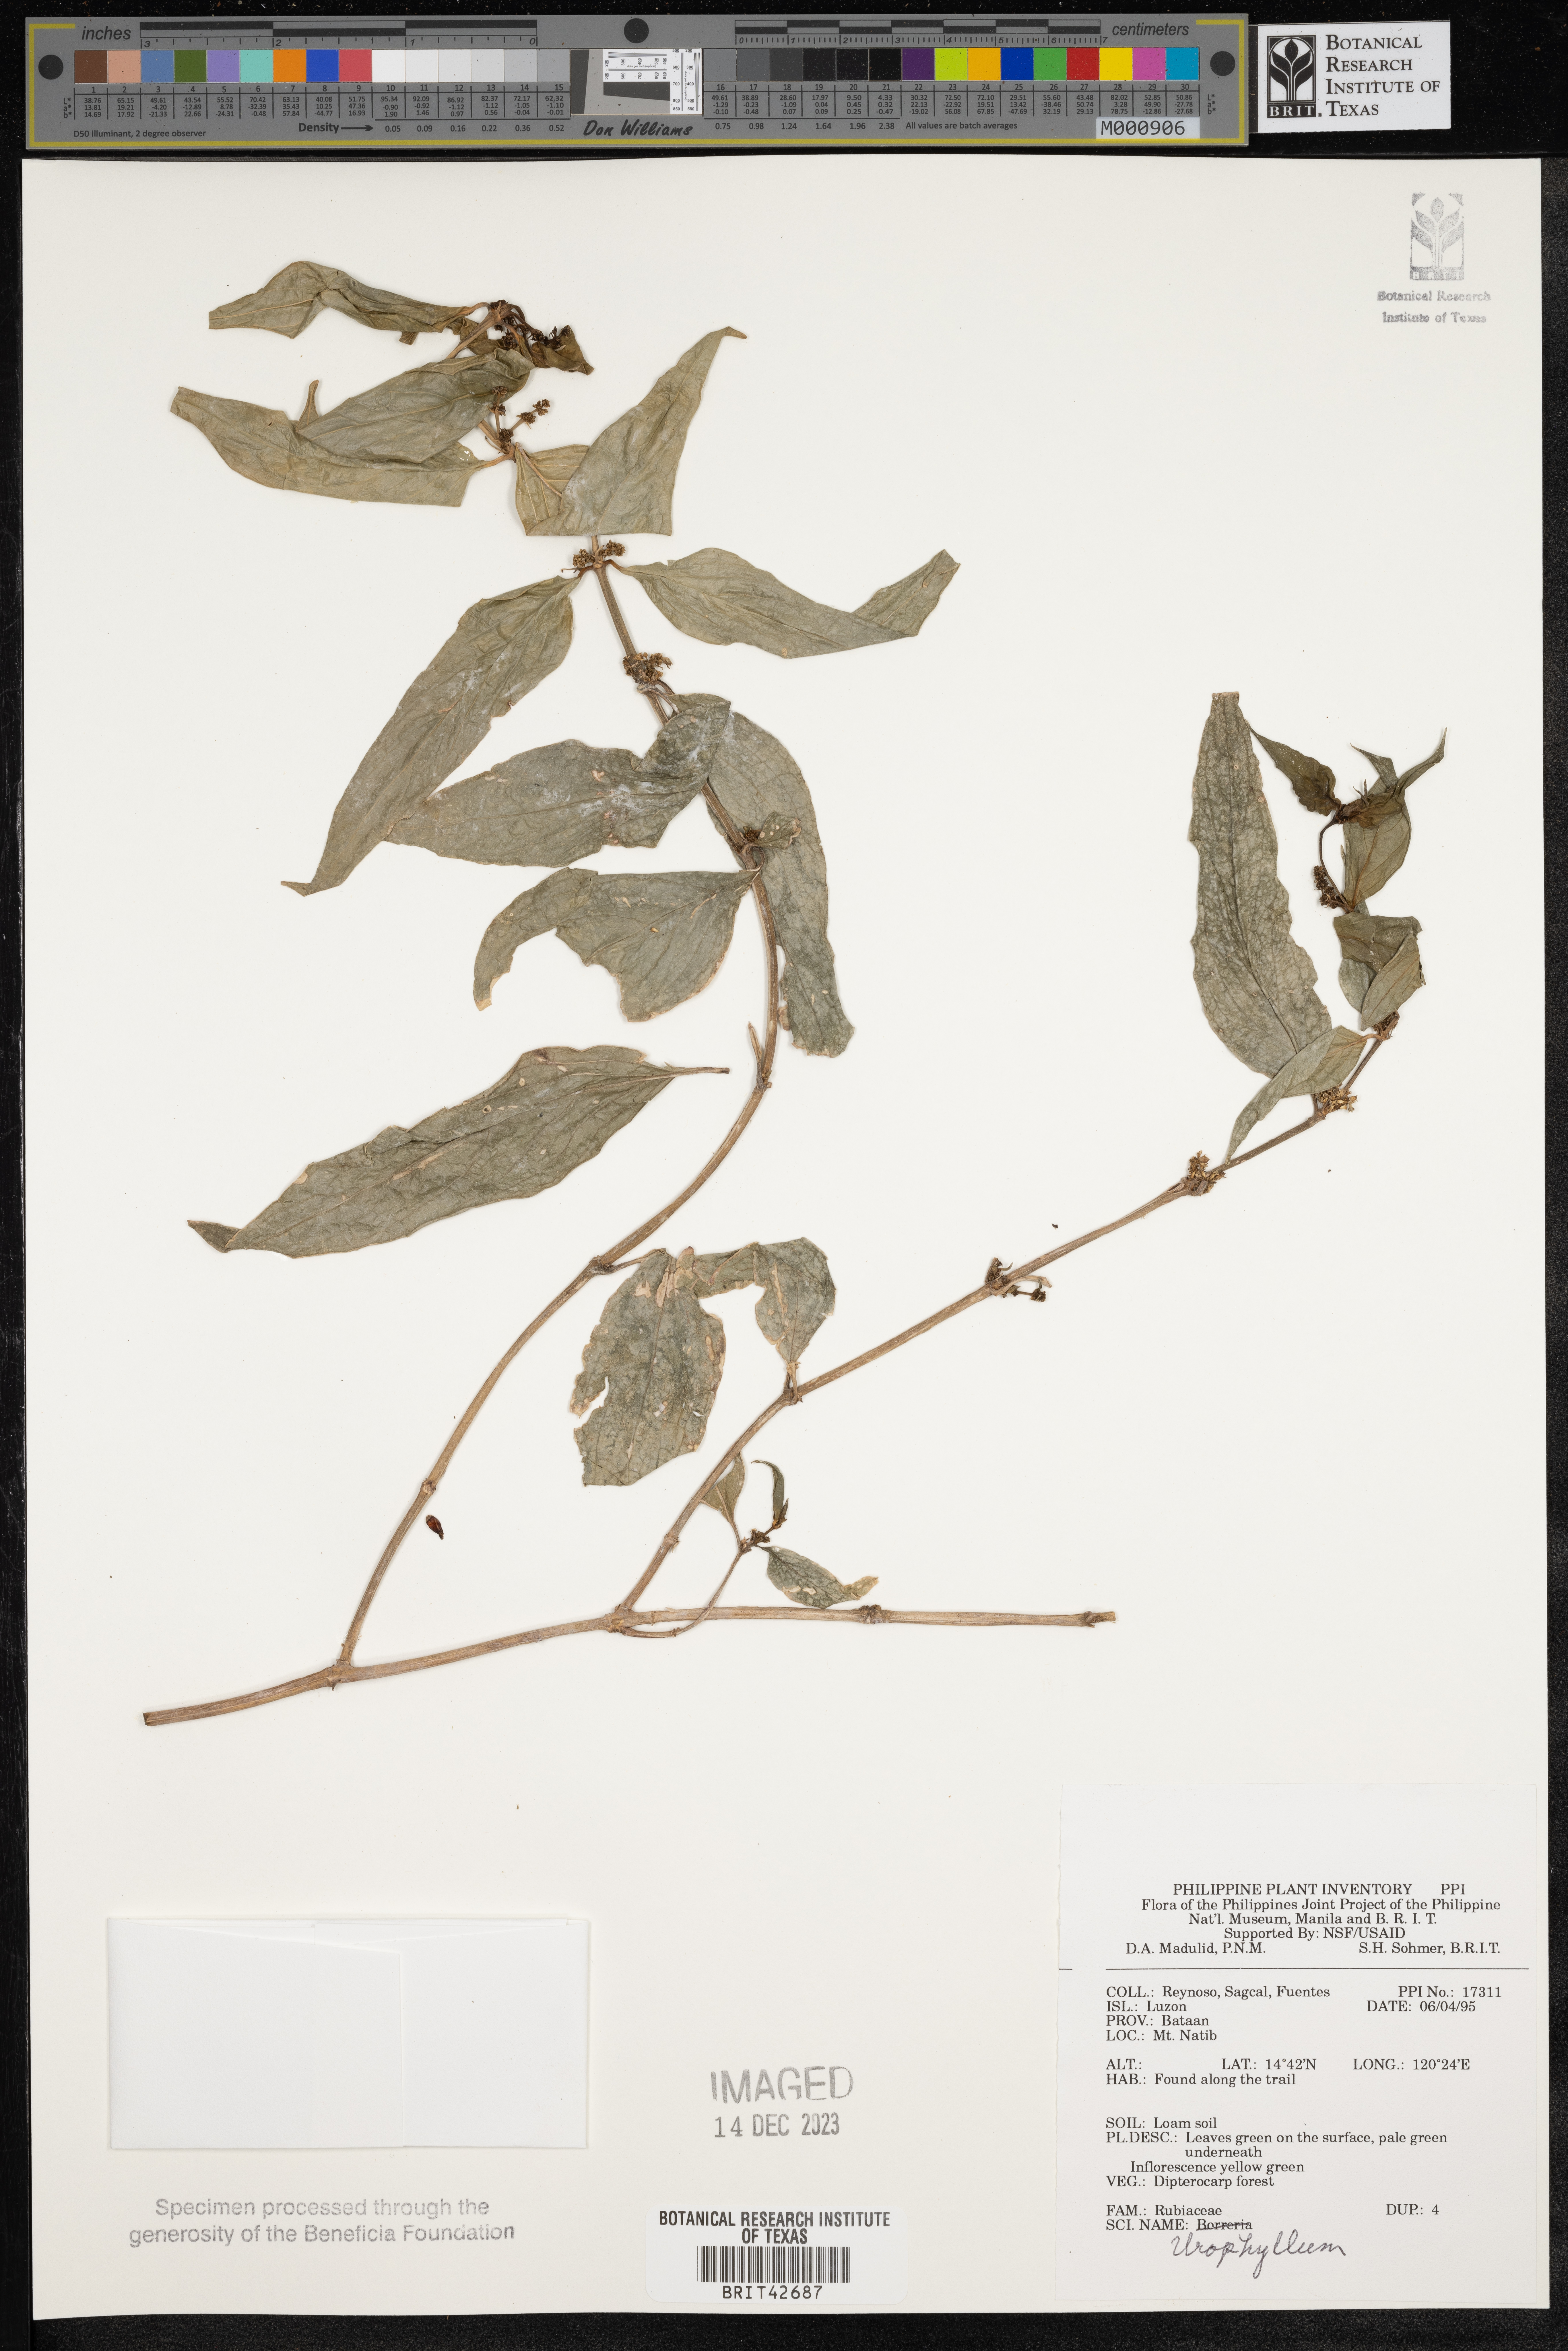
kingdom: Plantae
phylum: Tracheophyta
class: Magnoliopsida
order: Gentianales
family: Rubiaceae
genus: Urophyllum
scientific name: Urophyllum
